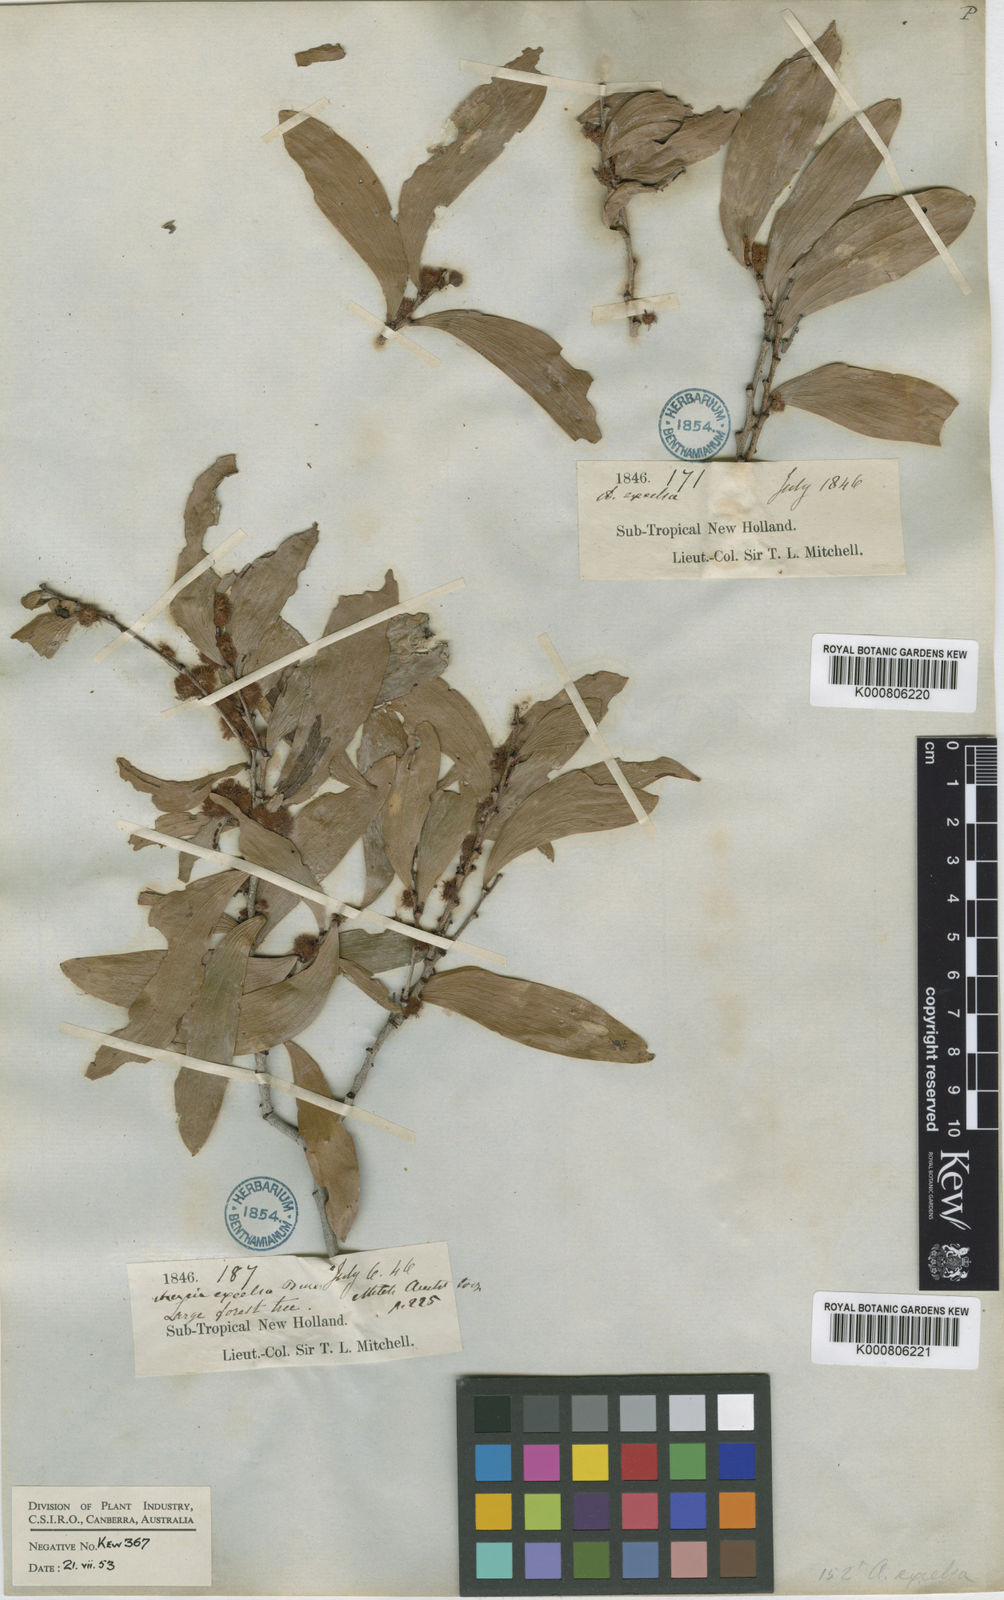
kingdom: Plantae
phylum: Tracheophyta
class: Magnoliopsida
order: Fabales
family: Fabaceae
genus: Acacia
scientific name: Acacia excelsa
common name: Ironwood
